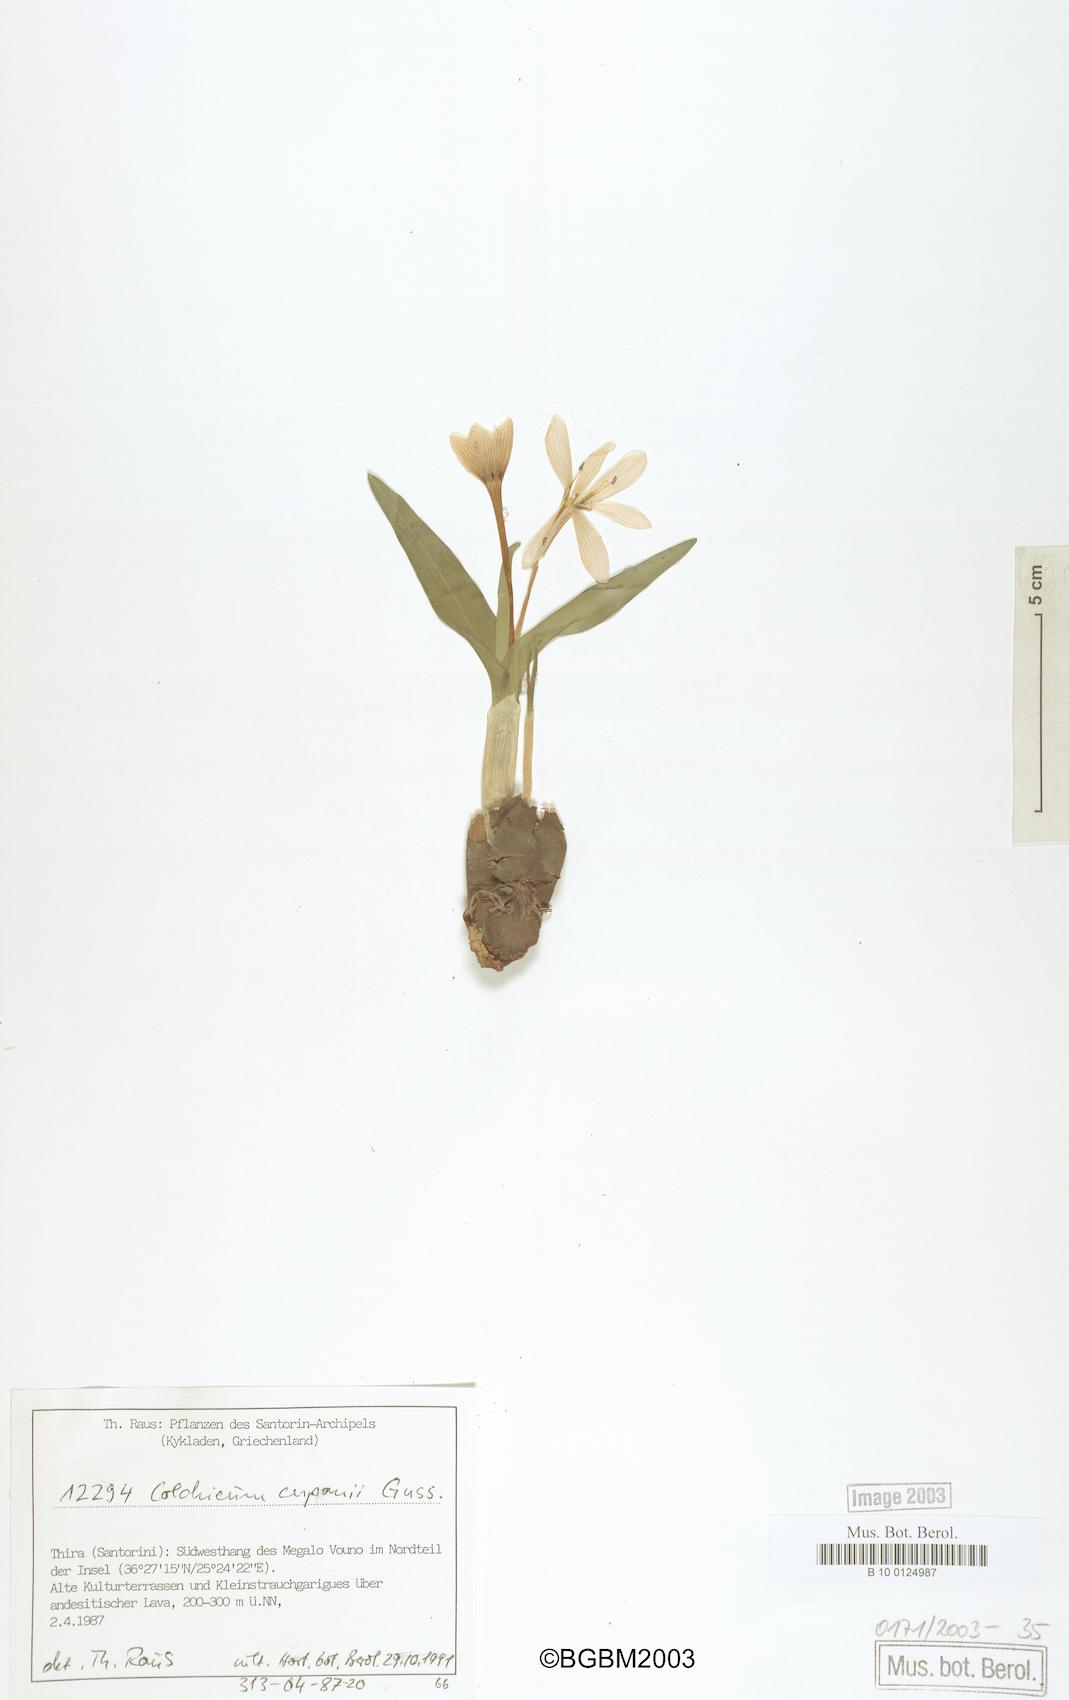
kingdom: Plantae
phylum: Tracheophyta
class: Liliopsida
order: Liliales
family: Colchicaceae
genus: Colchicum
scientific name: Colchicum cupanii
